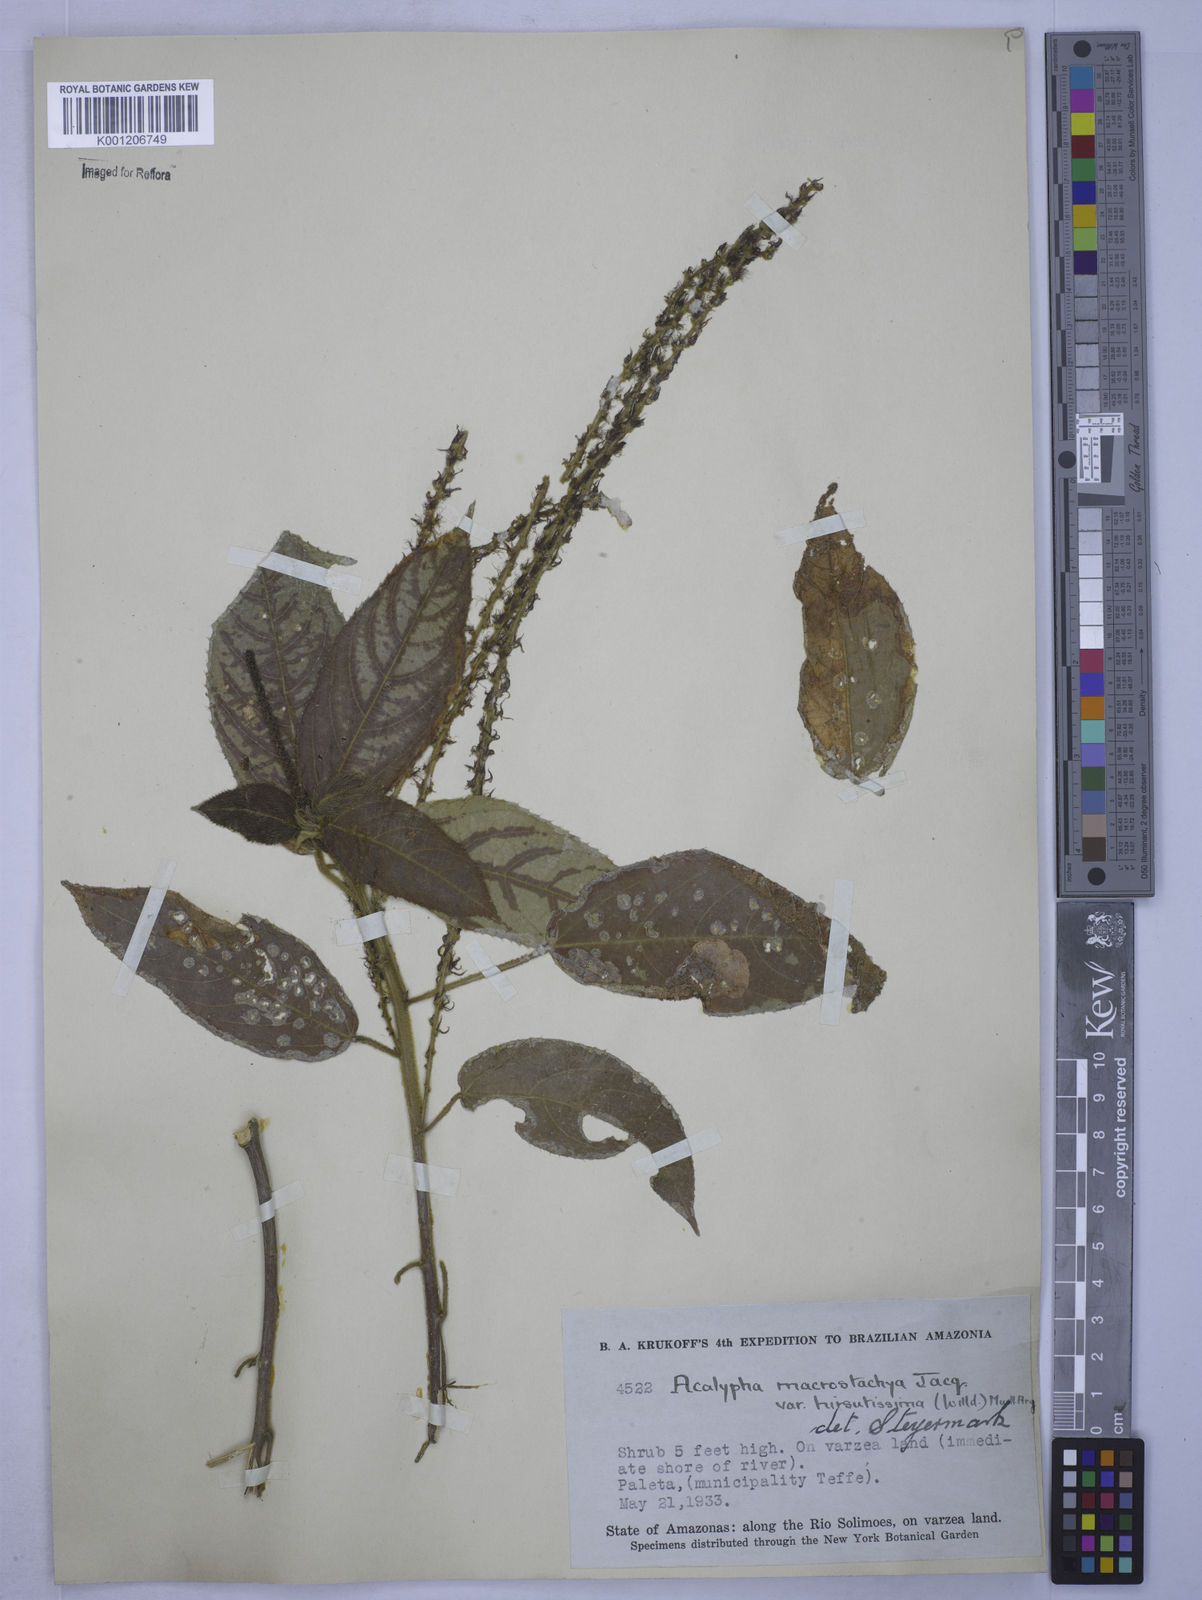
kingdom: Plantae
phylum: Tracheophyta
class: Magnoliopsida
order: Malpighiales
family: Euphorbiaceae
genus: Acalypha
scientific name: Acalypha macrostachya
